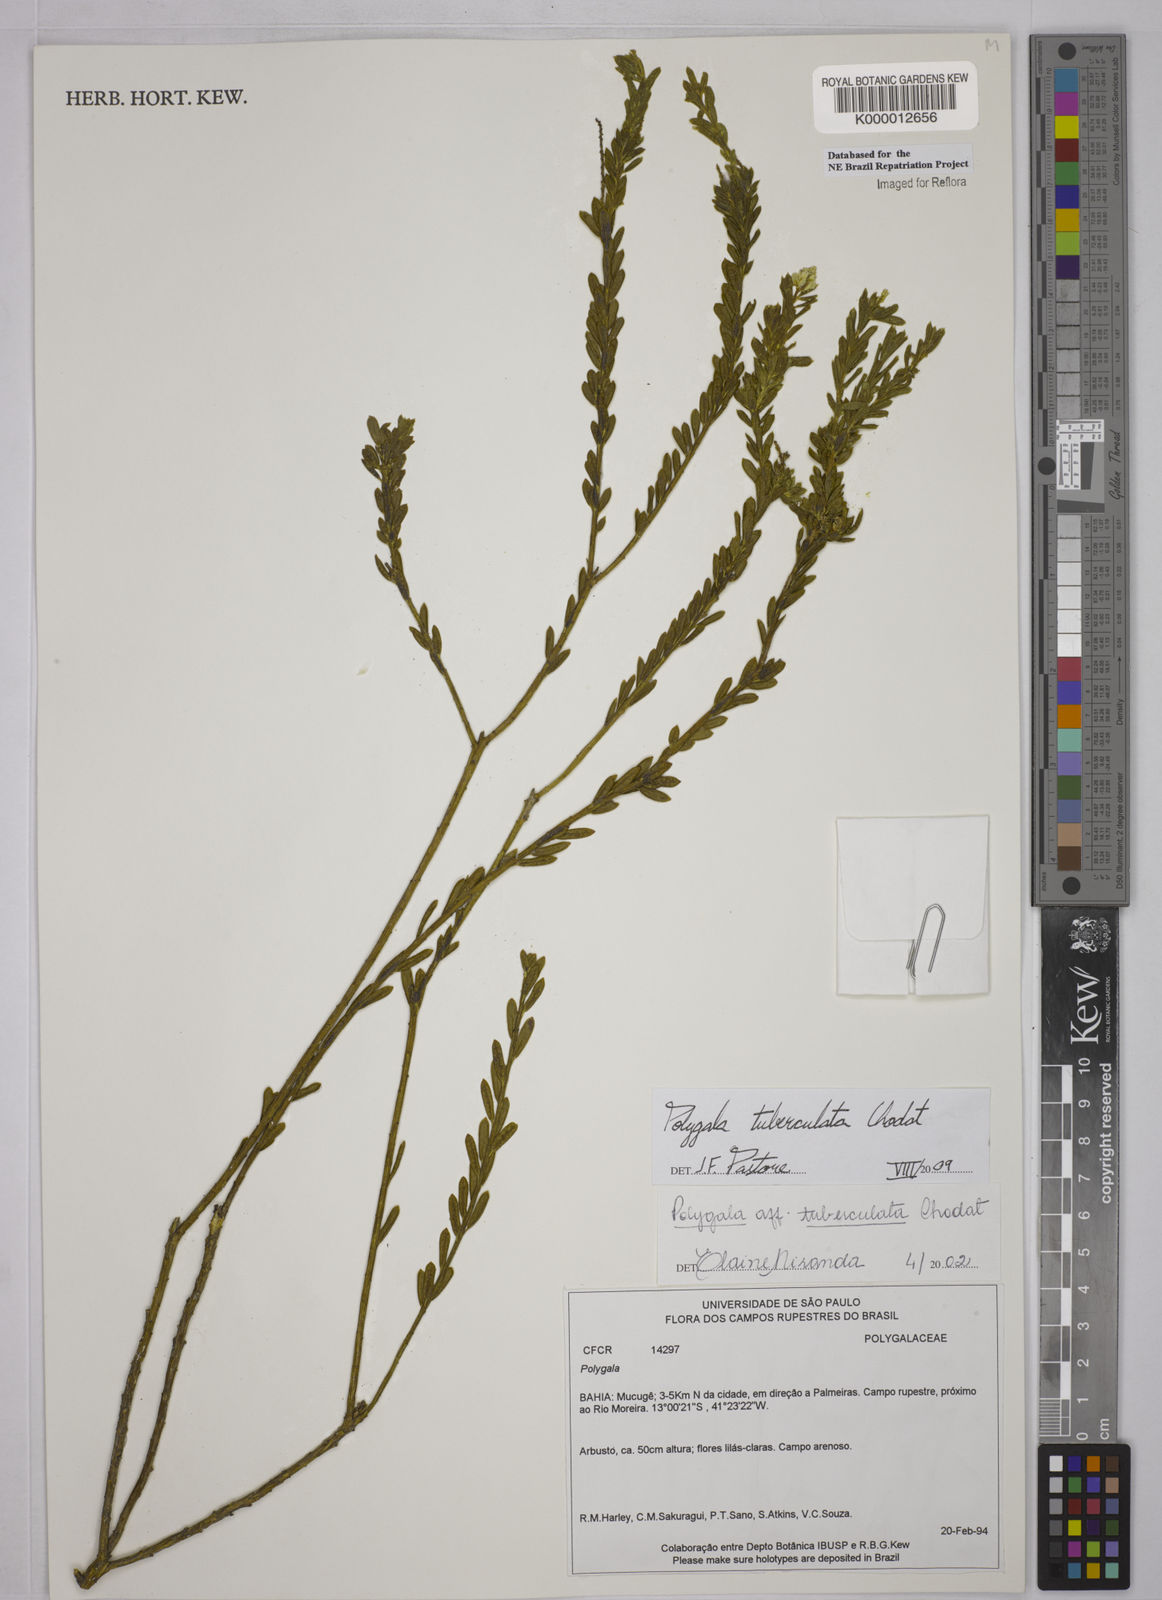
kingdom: Plantae
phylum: Tracheophyta
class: Magnoliopsida
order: Fabales
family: Polygalaceae
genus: Polygala
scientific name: Polygala tuberculata
